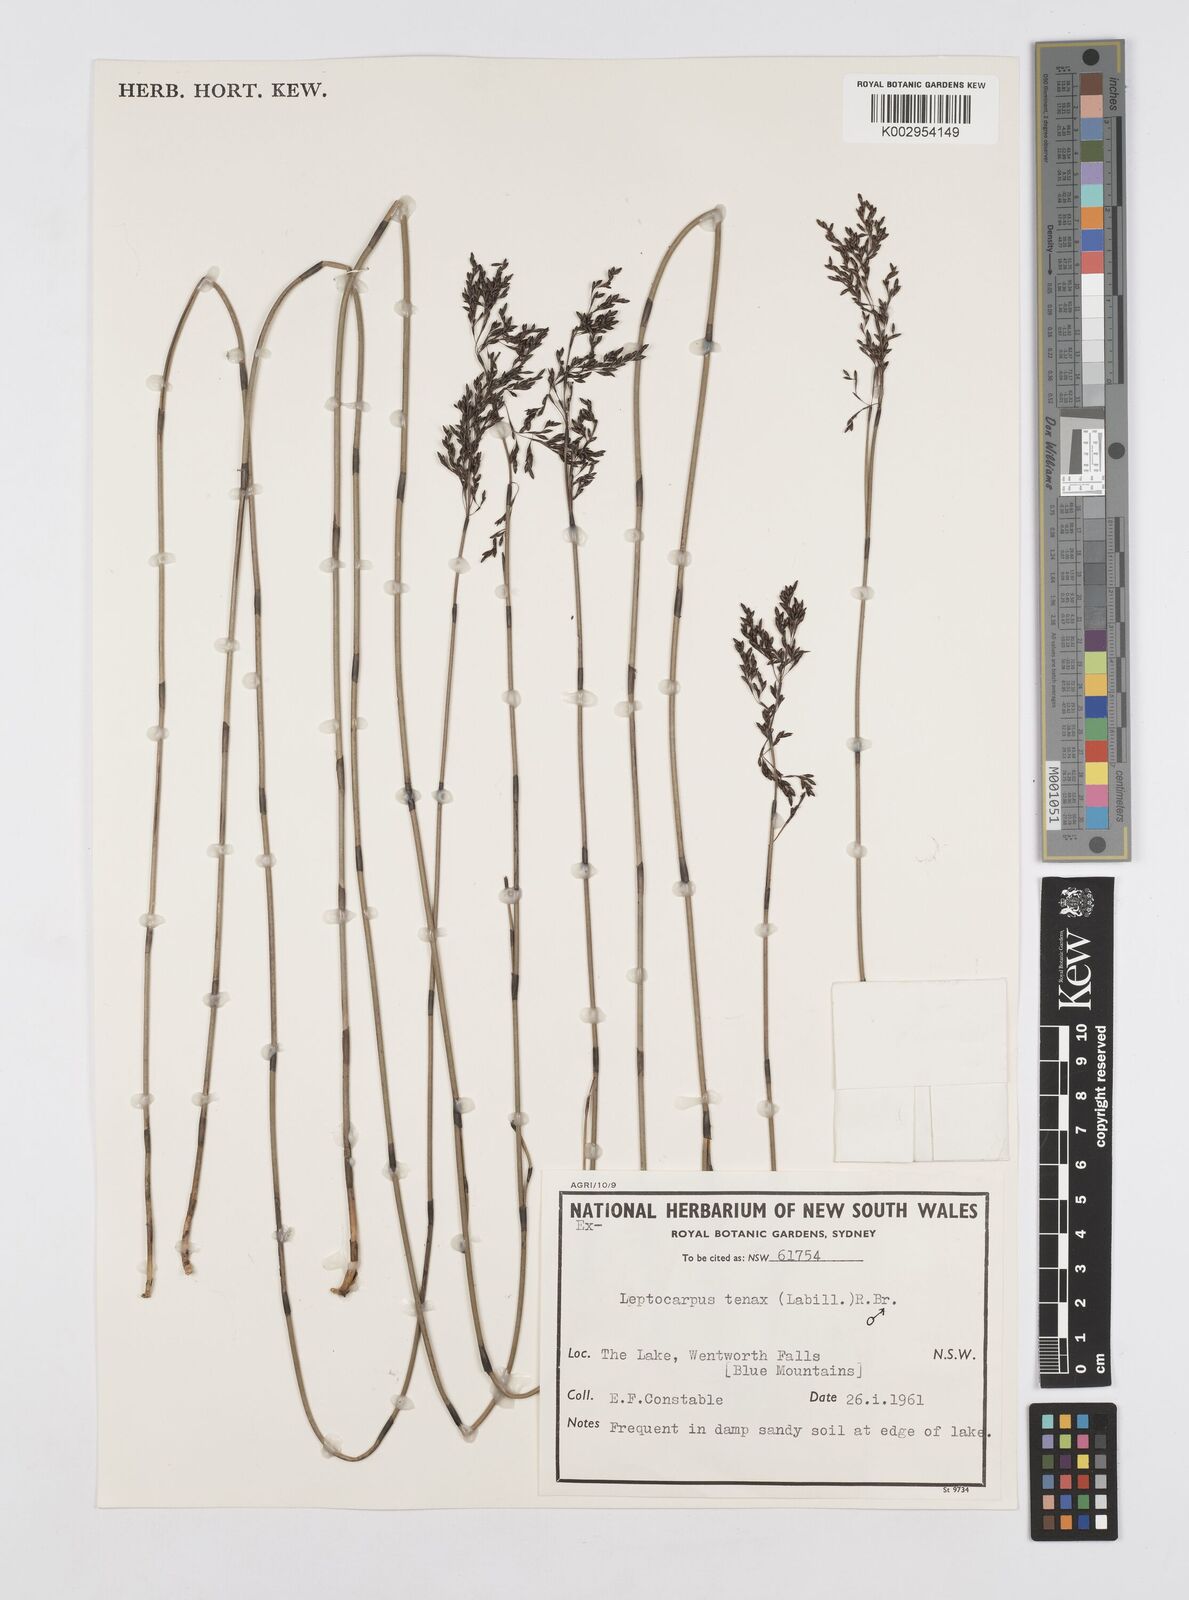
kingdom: Plantae
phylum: Tracheophyta
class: Liliopsida
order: Poales
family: Restionaceae
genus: Leptocarpus
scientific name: Leptocarpus tenax
